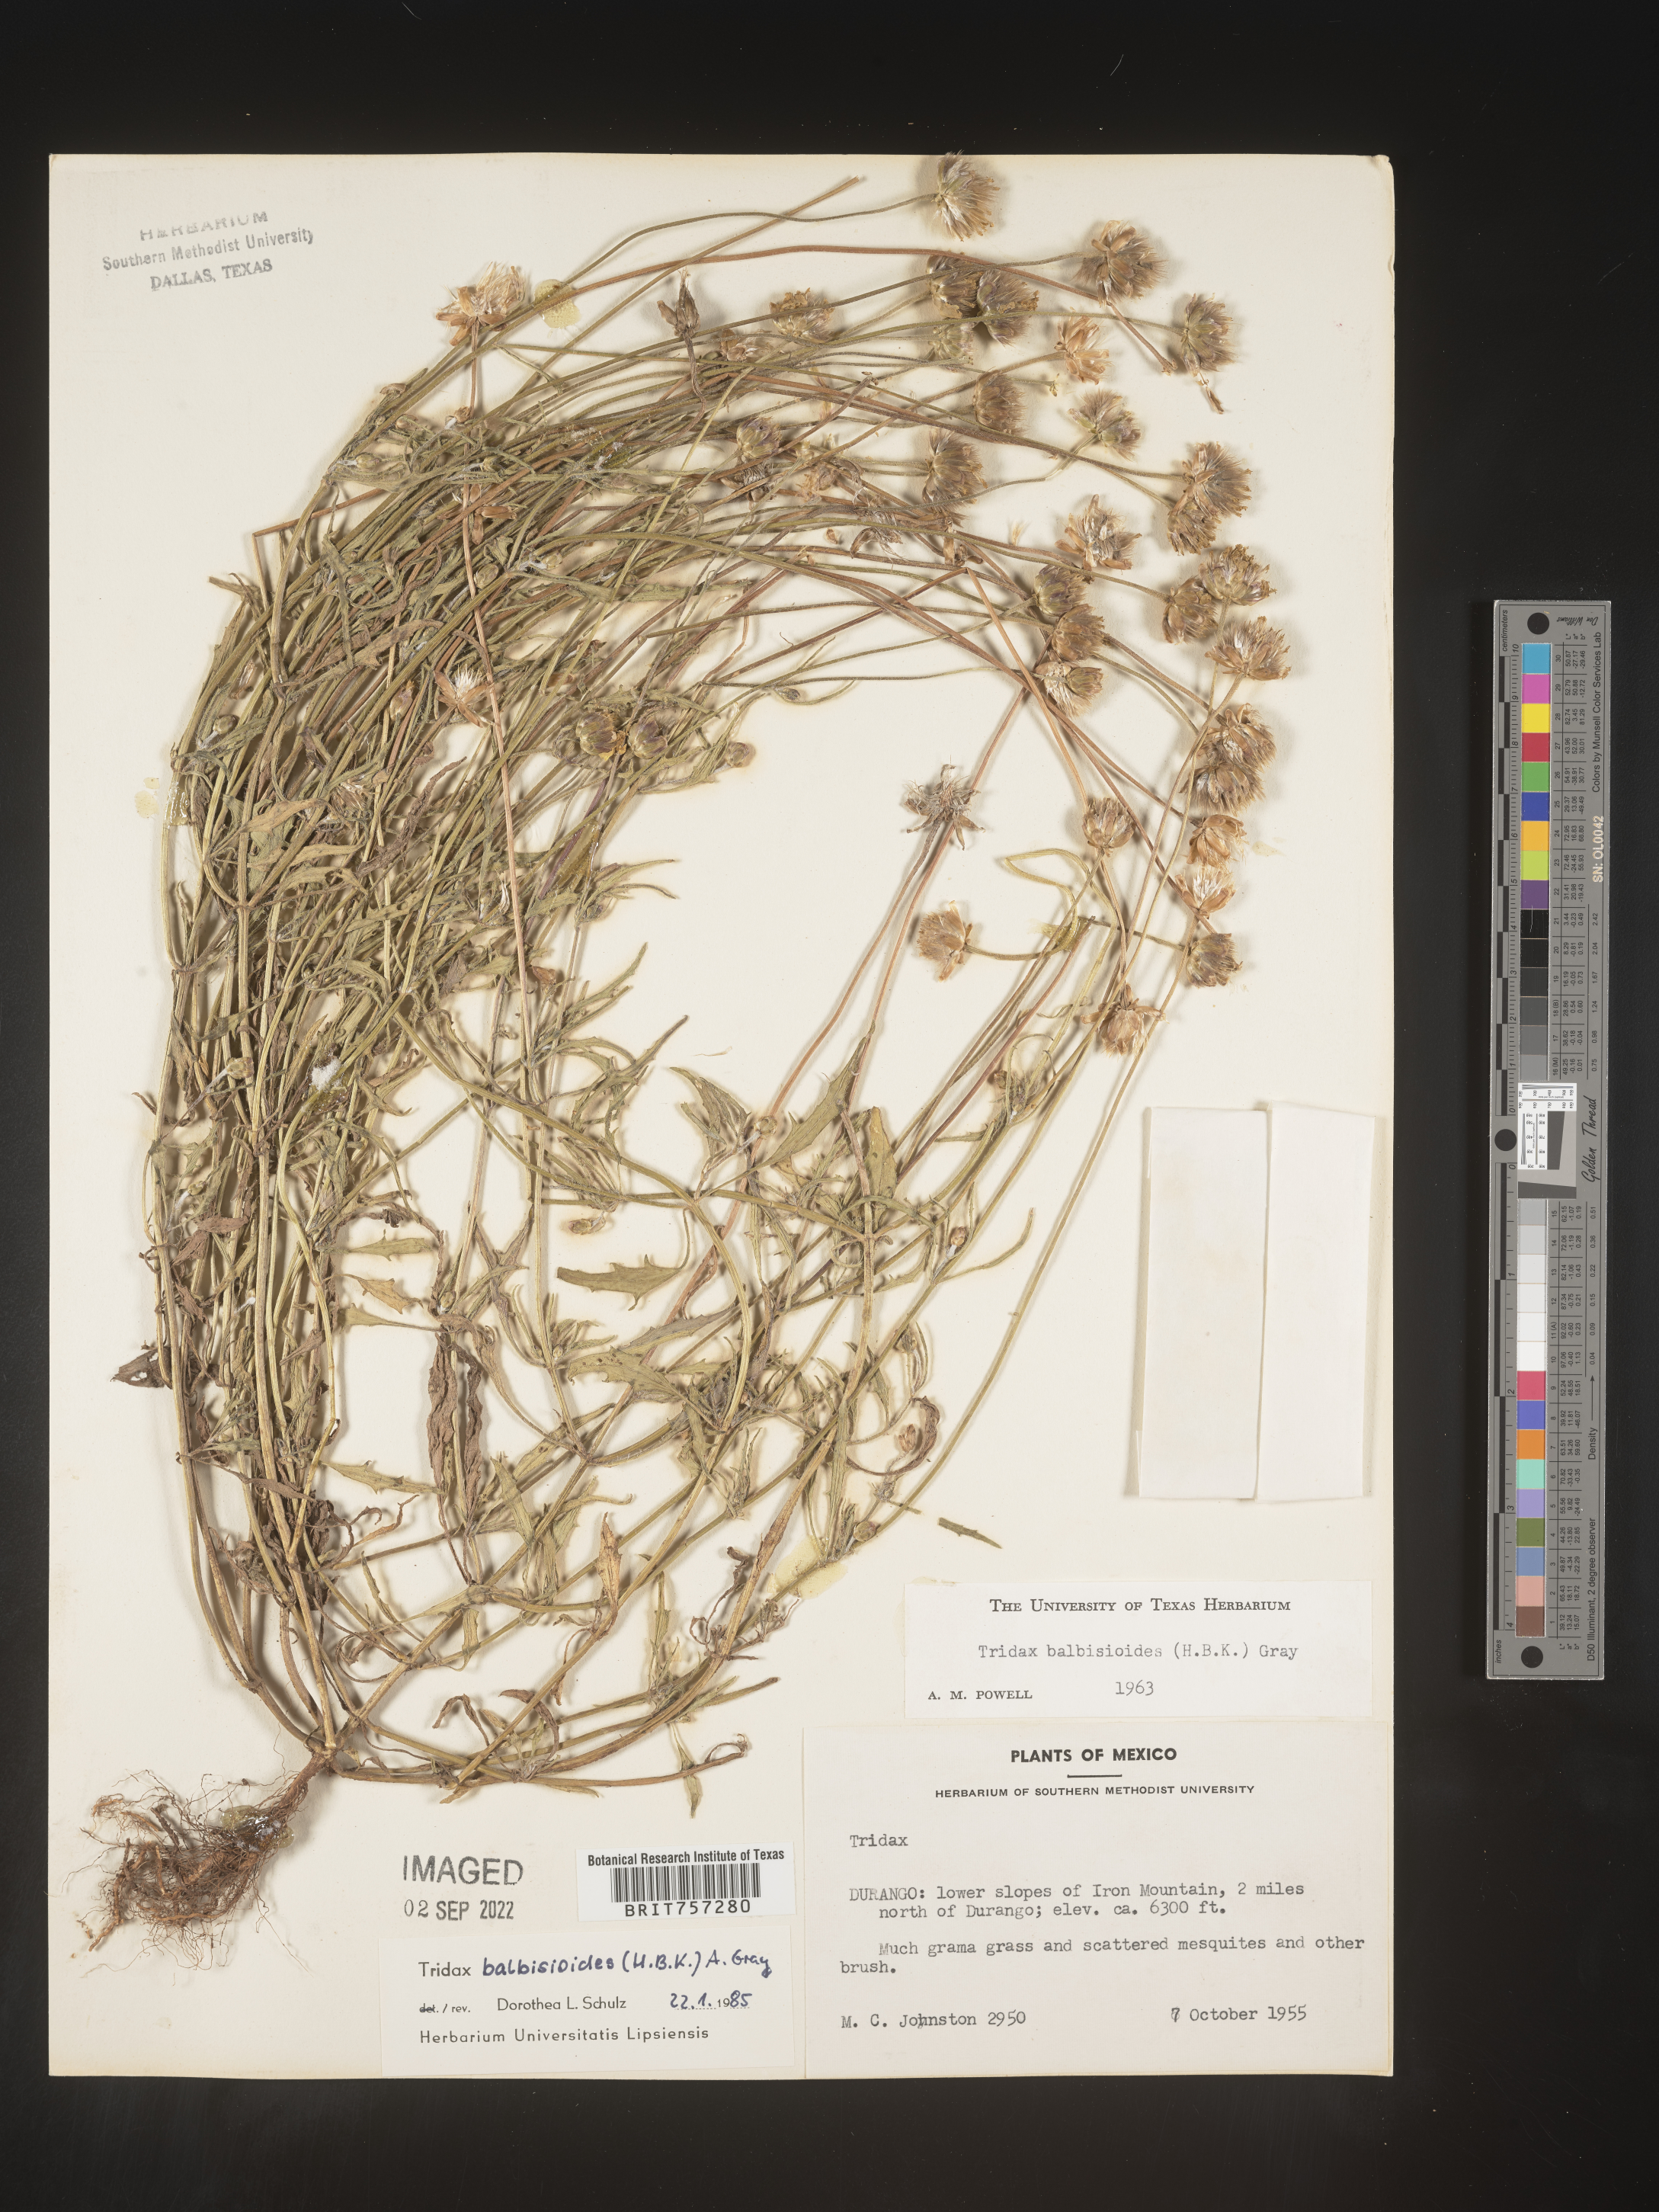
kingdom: Plantae
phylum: Tracheophyta
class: Magnoliopsida
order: Asterales
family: Asteraceae
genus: Tridax
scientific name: Tridax
